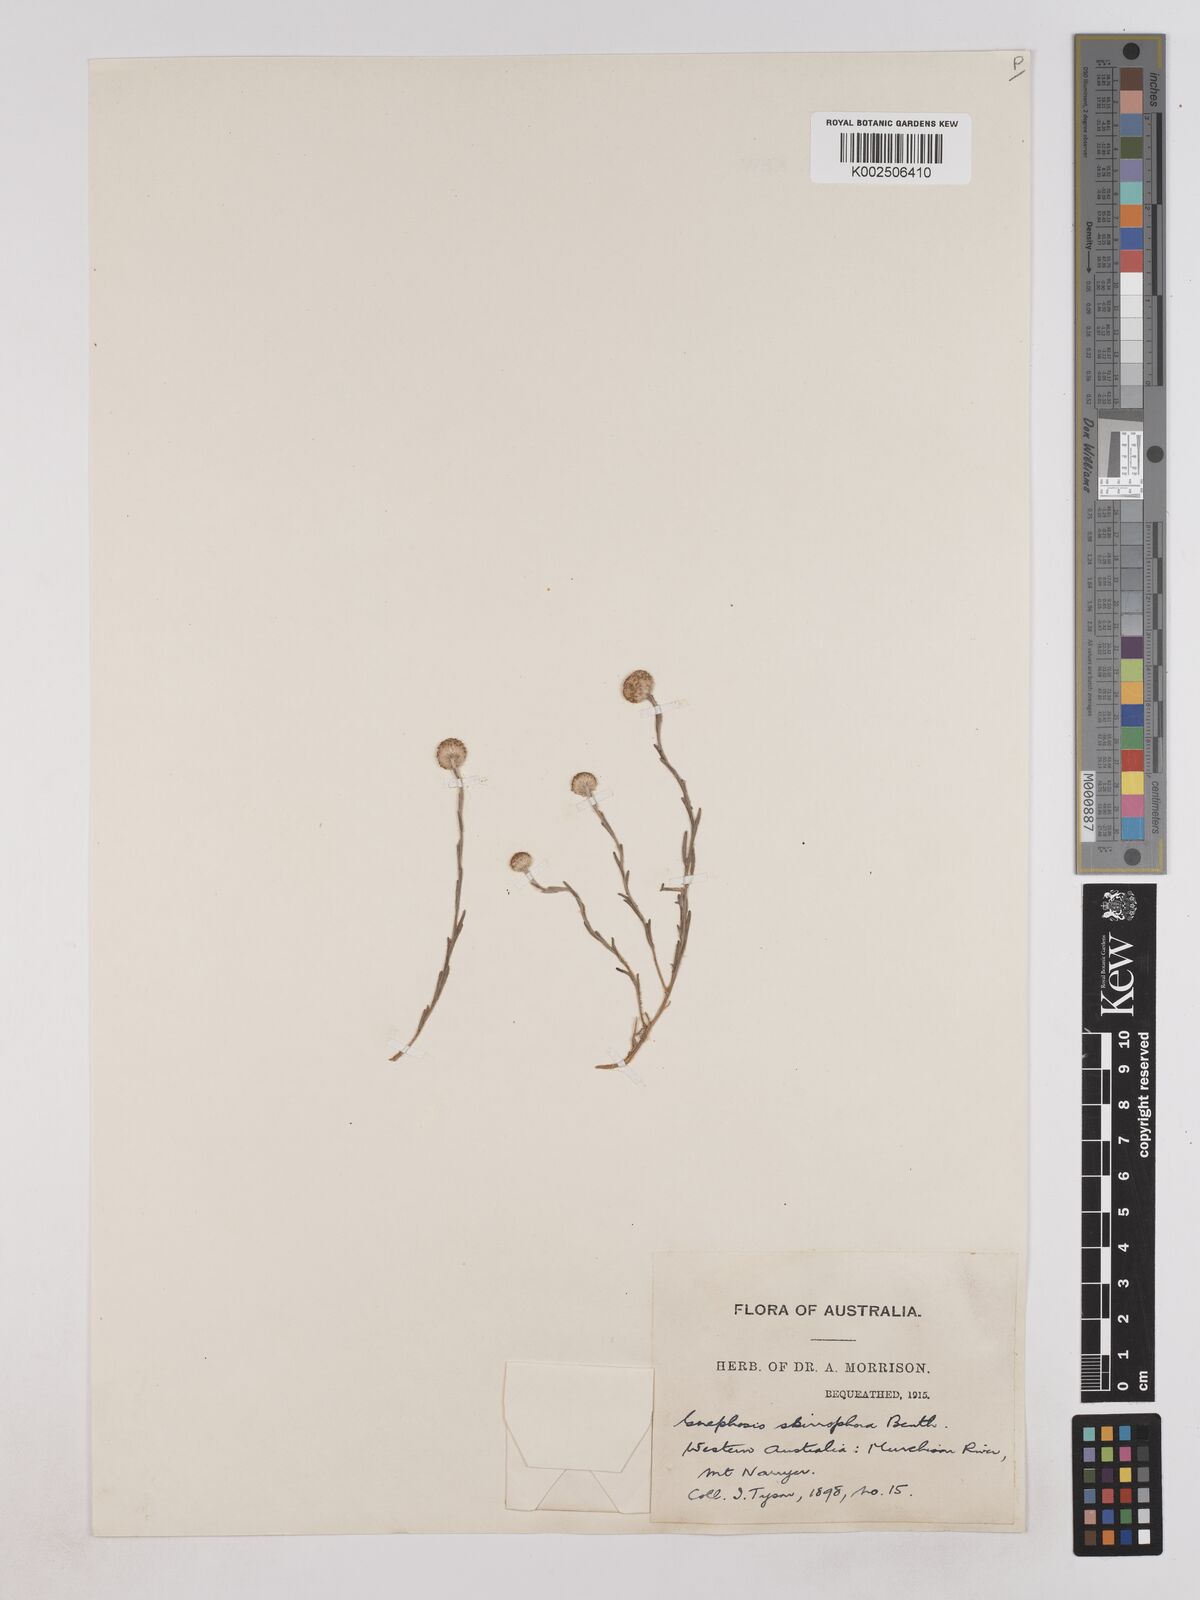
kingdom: Plantae
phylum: Tracheophyta
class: Magnoliopsida
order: Asterales
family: Asteraceae
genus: Trichanthodium
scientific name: Trichanthodium skirrophorum
